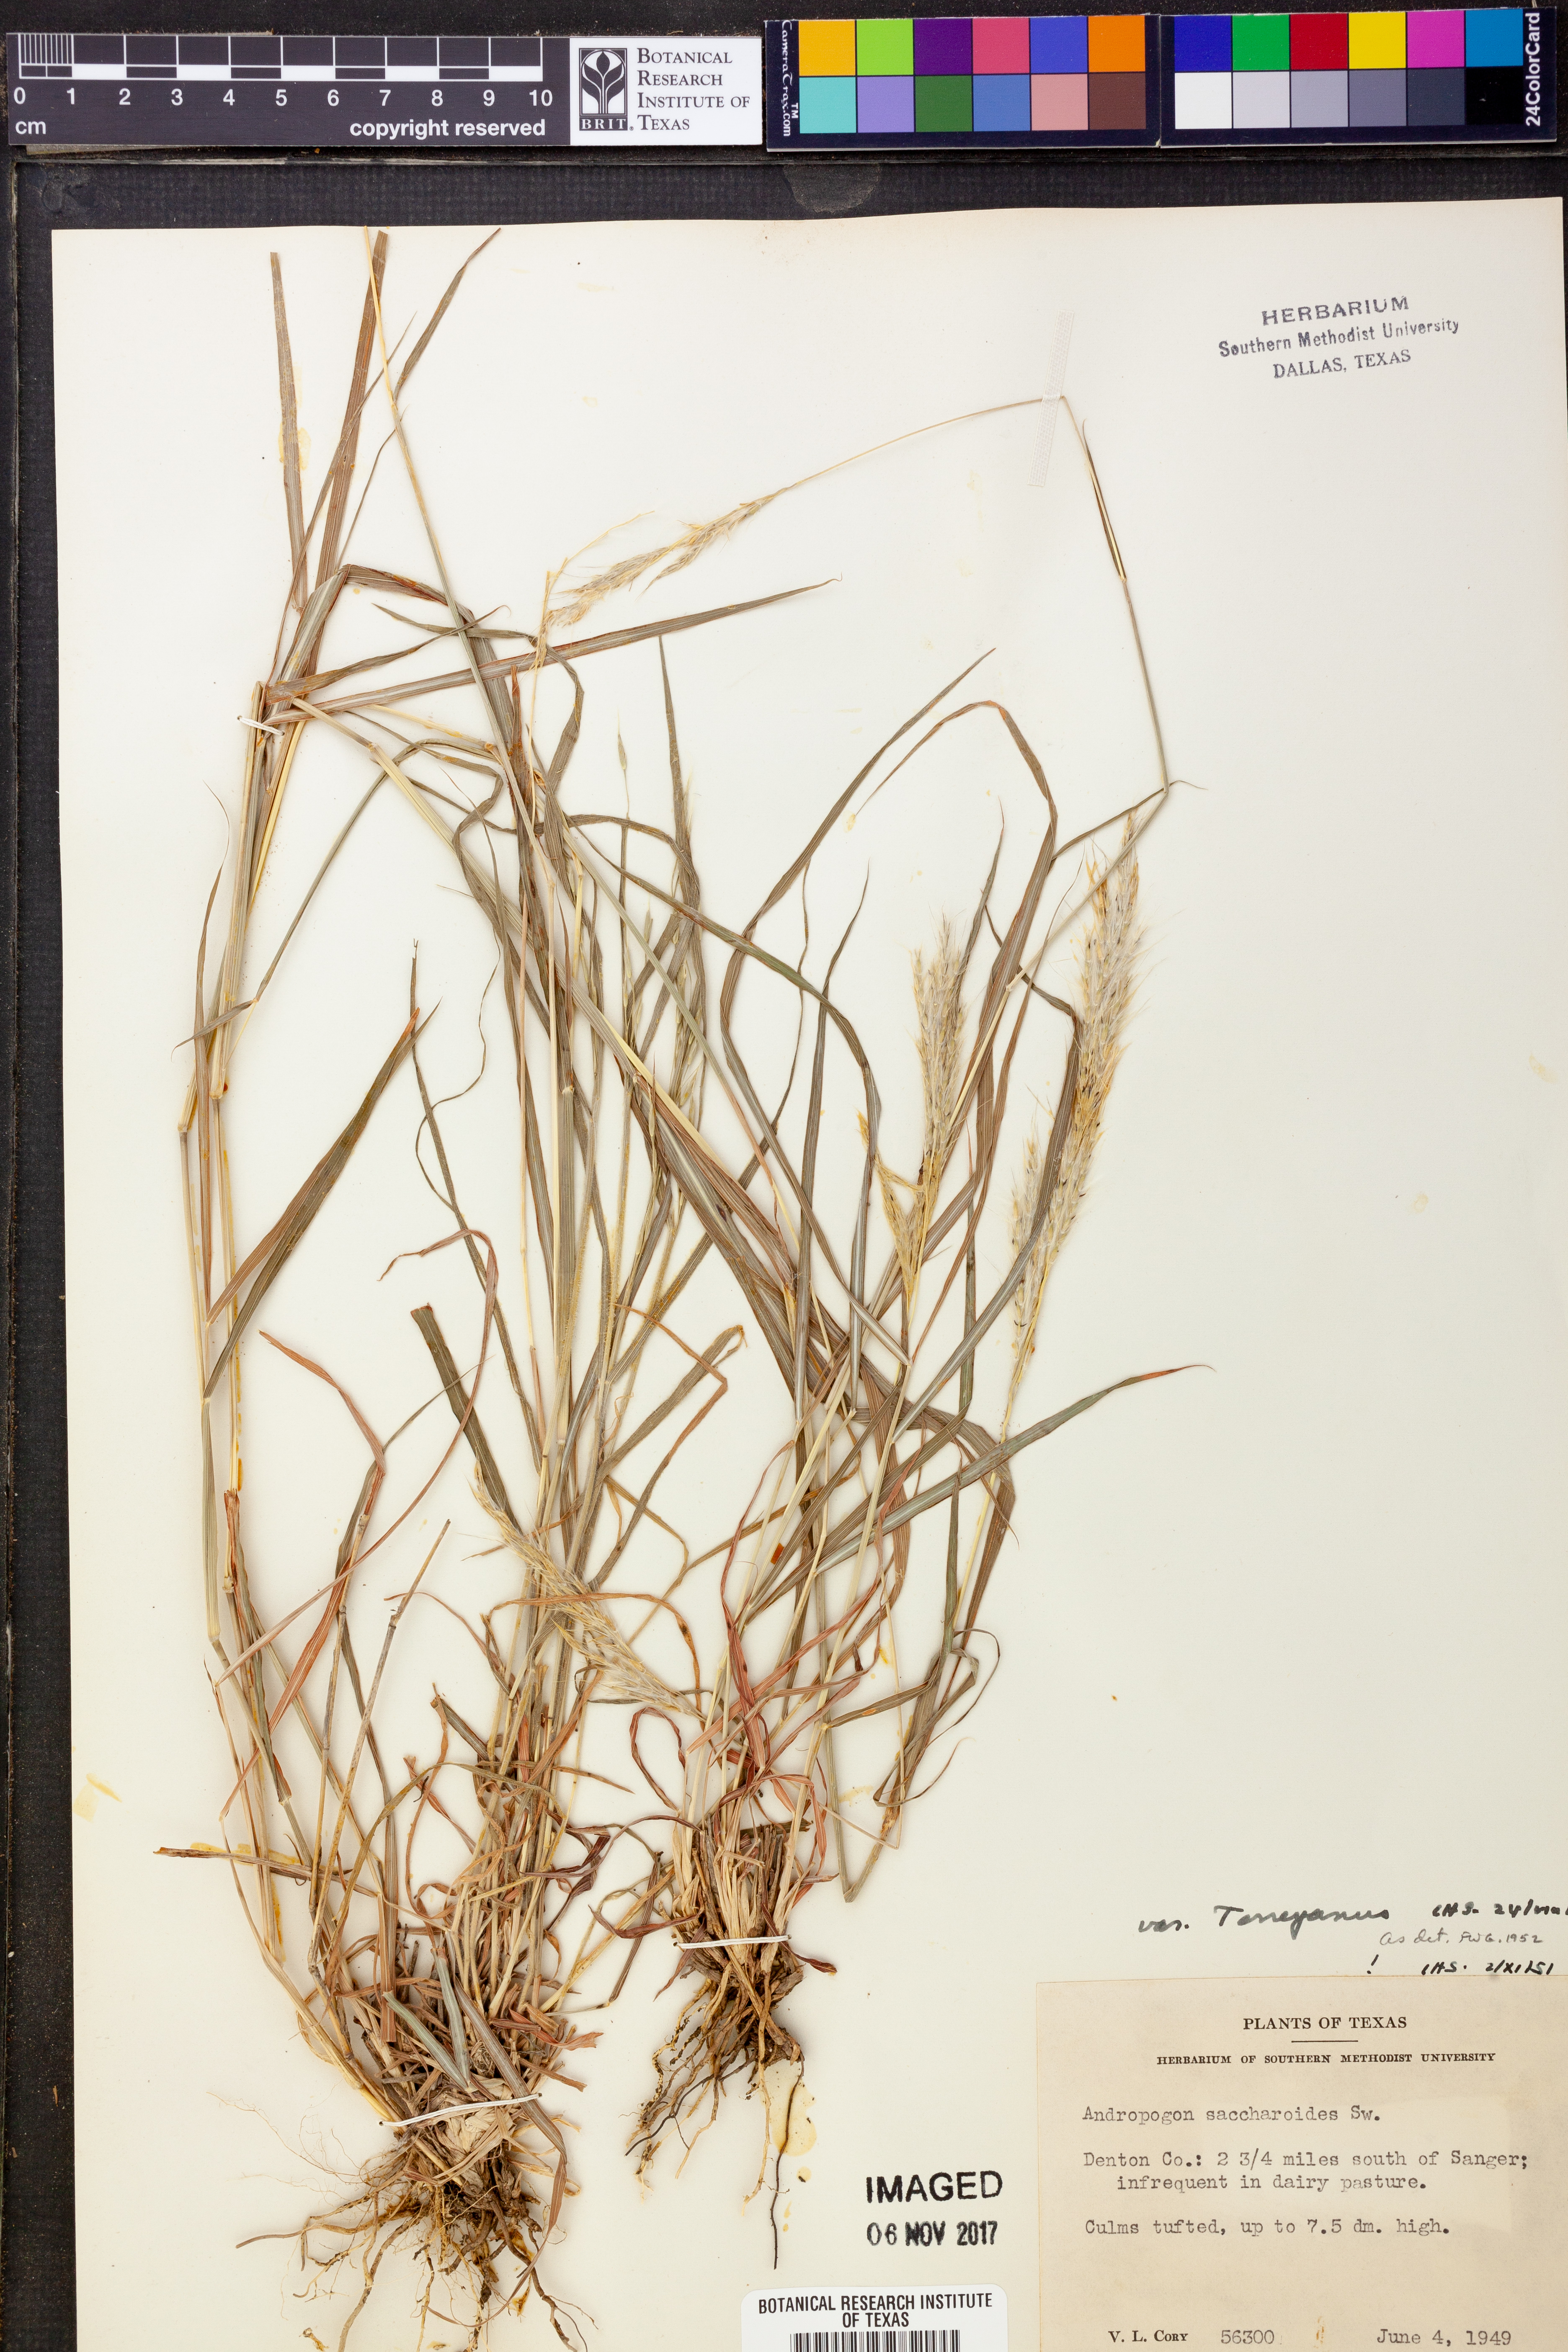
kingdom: Plantae
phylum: Tracheophyta
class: Liliopsida
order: Poales
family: Poaceae
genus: Bothriochloa
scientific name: Bothriochloa torreyana
